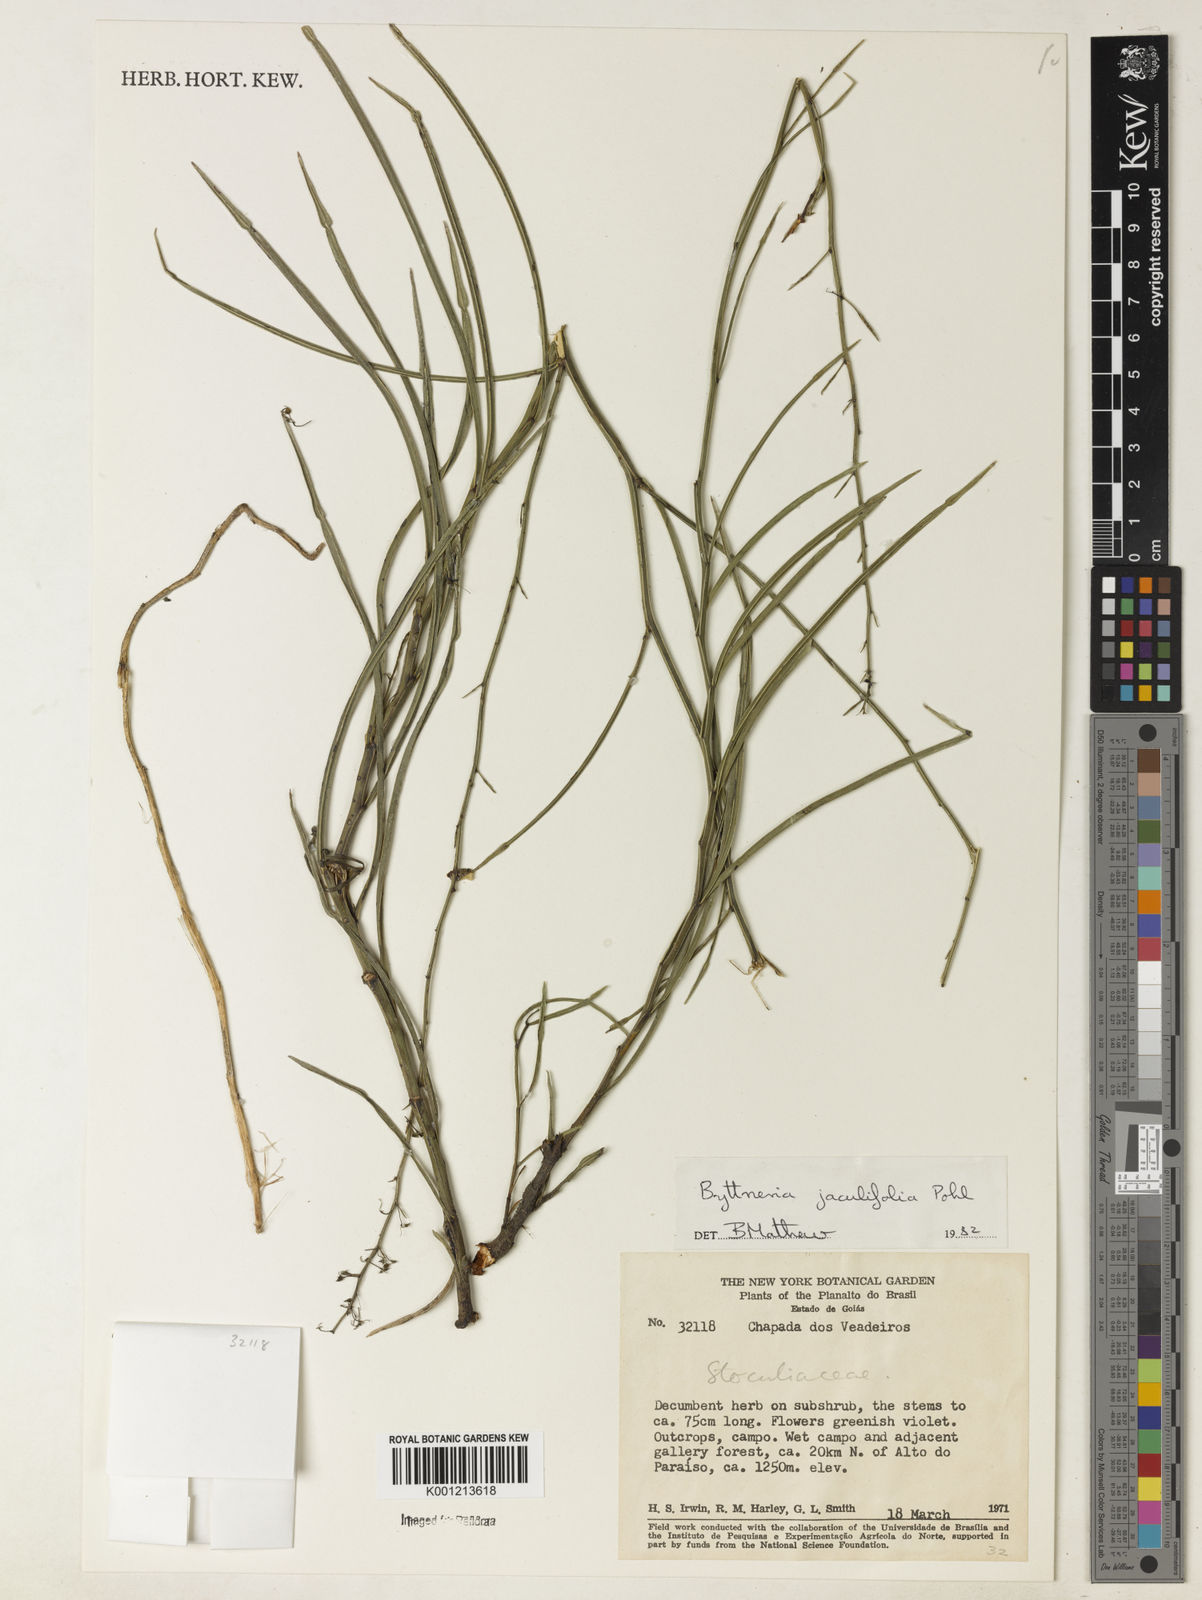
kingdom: Plantae
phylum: Tracheophyta
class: Magnoliopsida
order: Malvales
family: Malvaceae
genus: Byttneria
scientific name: Byttneria jaculifolia
